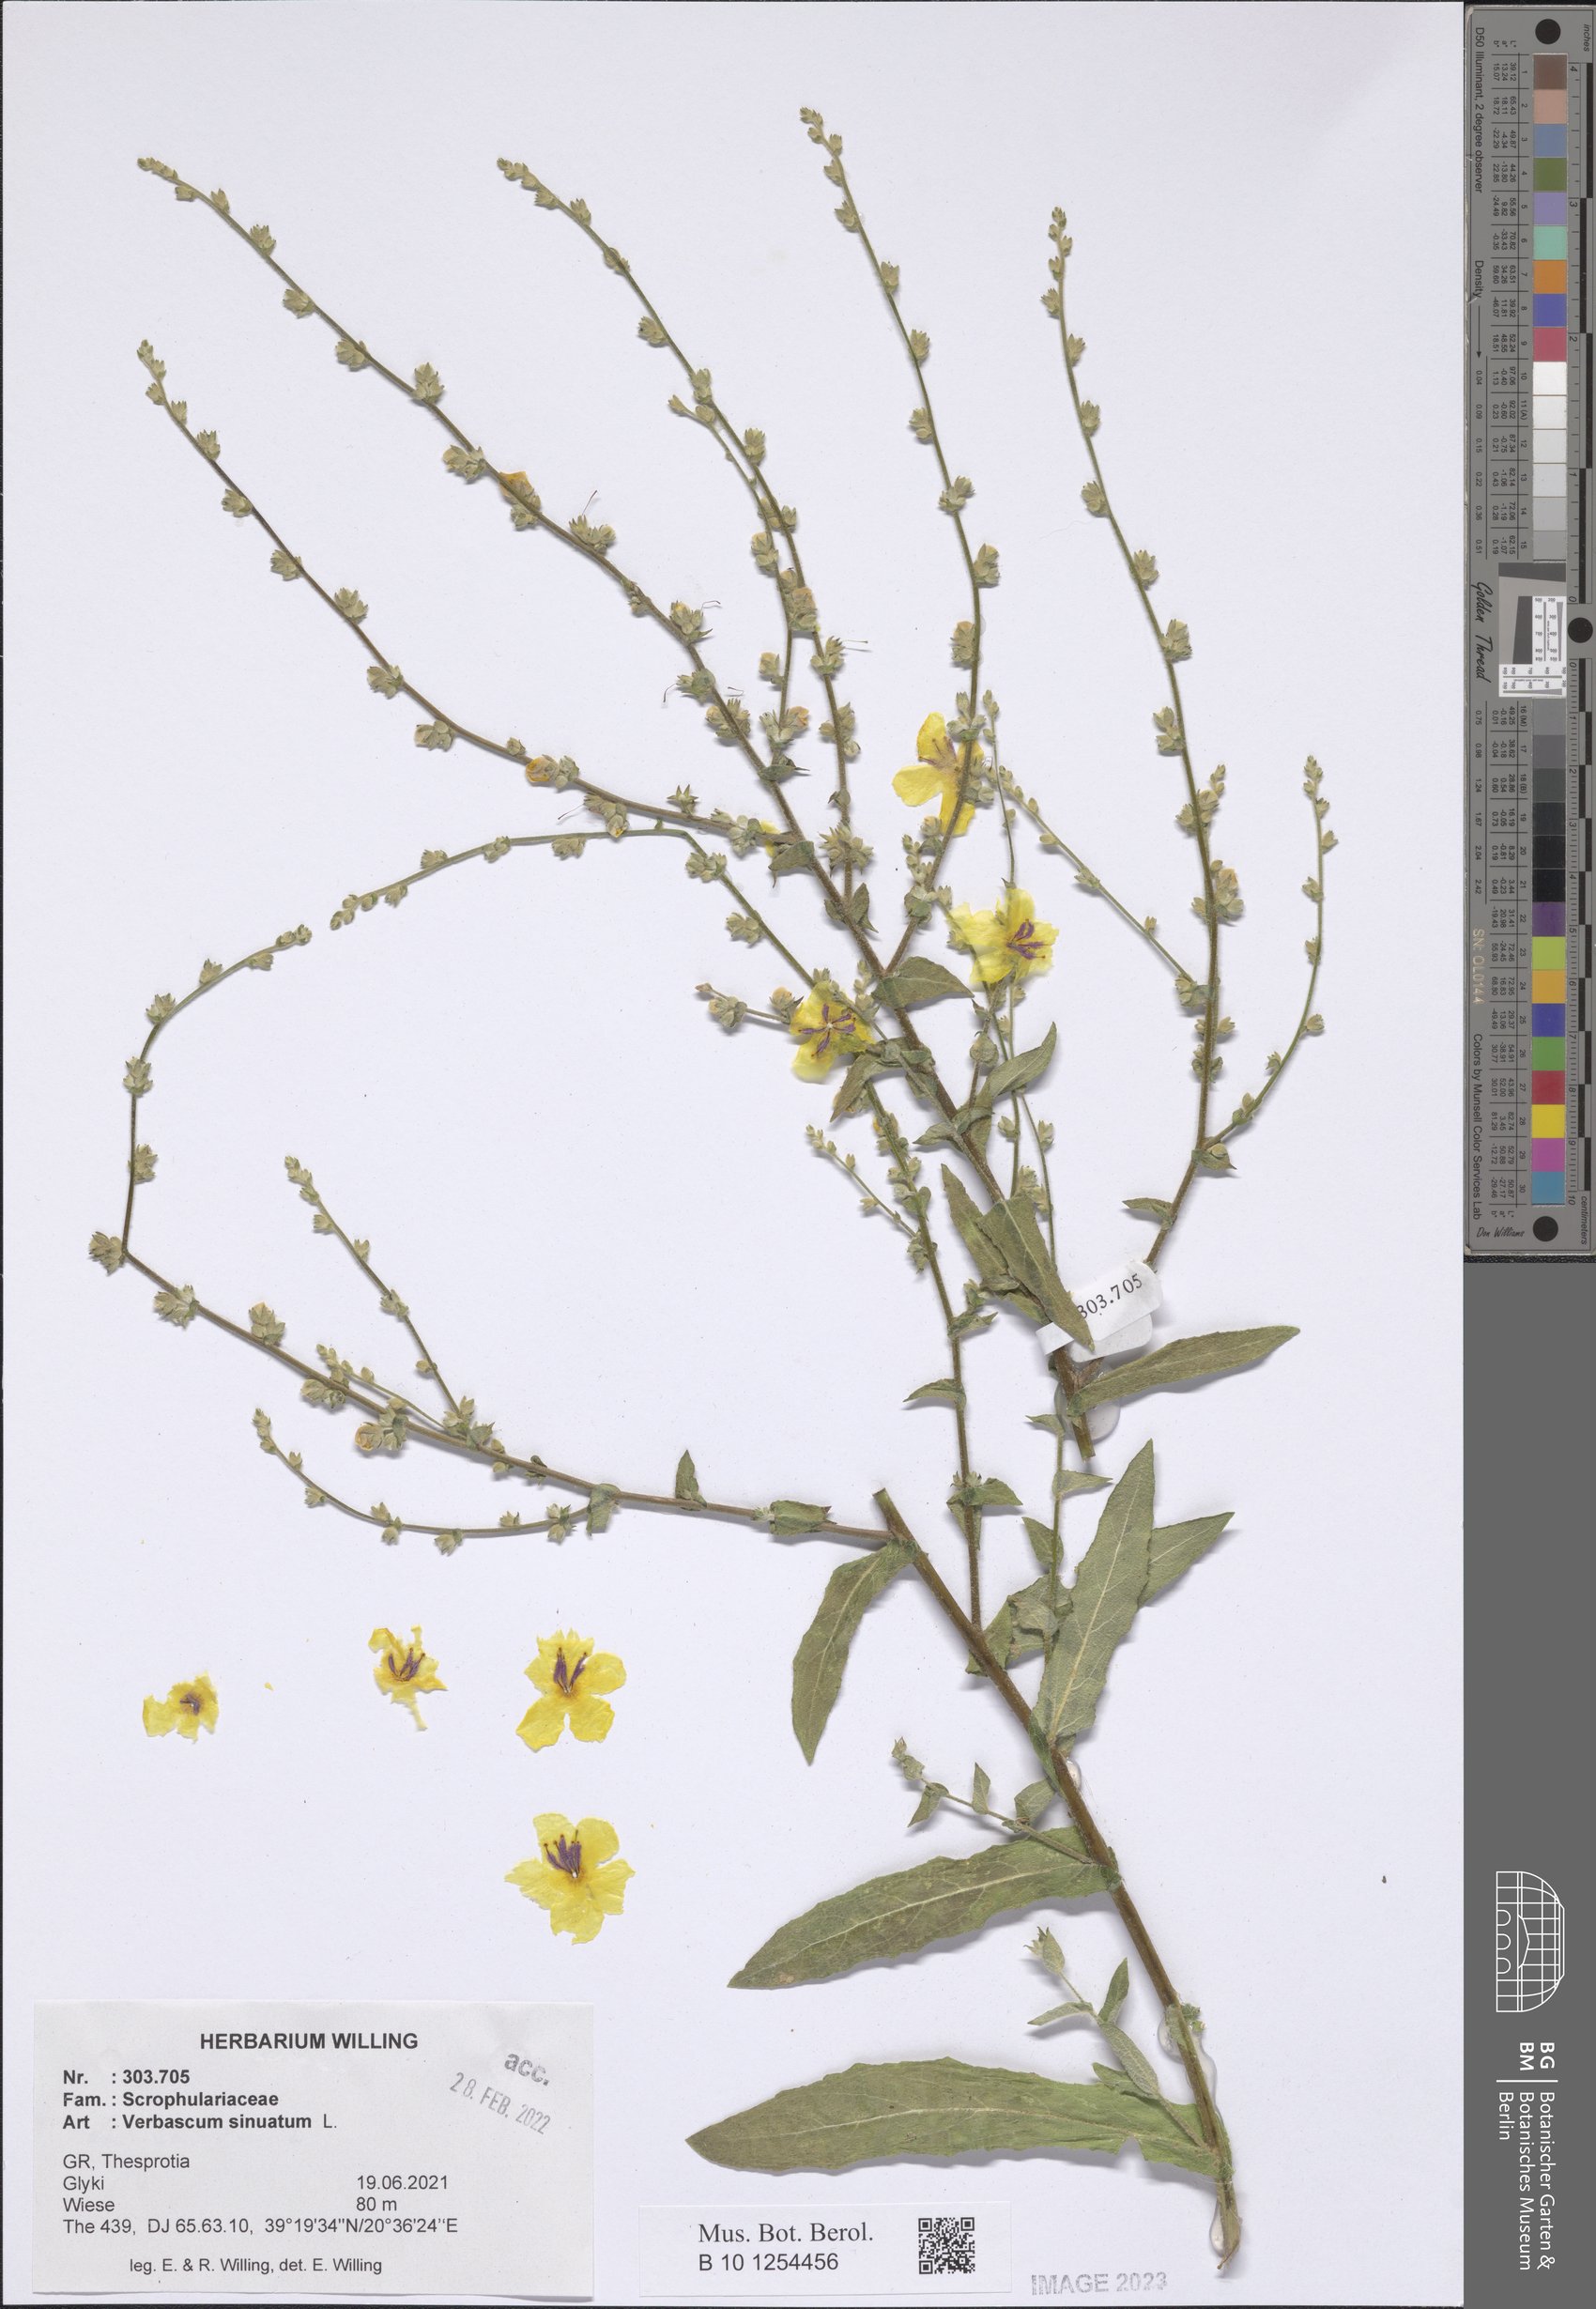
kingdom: Plantae
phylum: Tracheophyta
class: Magnoliopsida
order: Lamiales
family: Scrophulariaceae
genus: Verbascum
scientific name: Verbascum sinuatum
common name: Wavyleaf mullein
